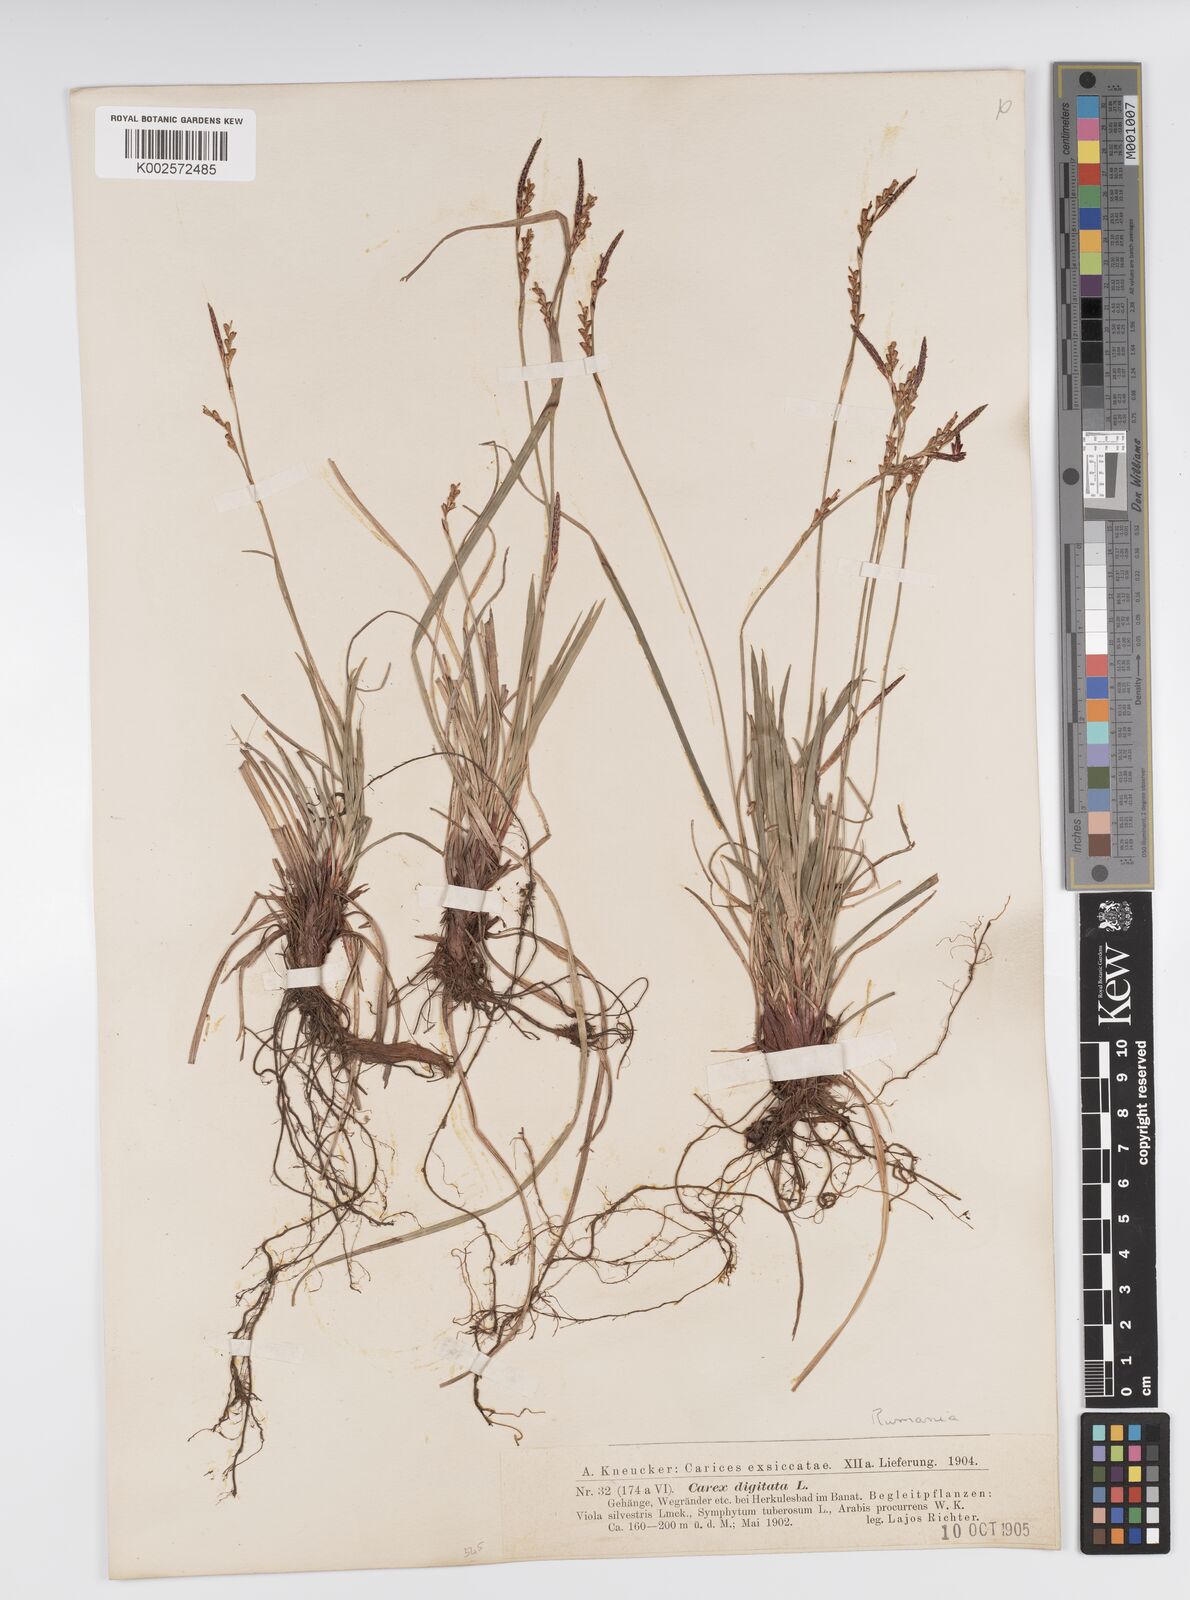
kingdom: Plantae
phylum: Tracheophyta
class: Liliopsida
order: Poales
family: Cyperaceae
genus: Carex
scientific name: Carex digitata
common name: Fingered sedge
